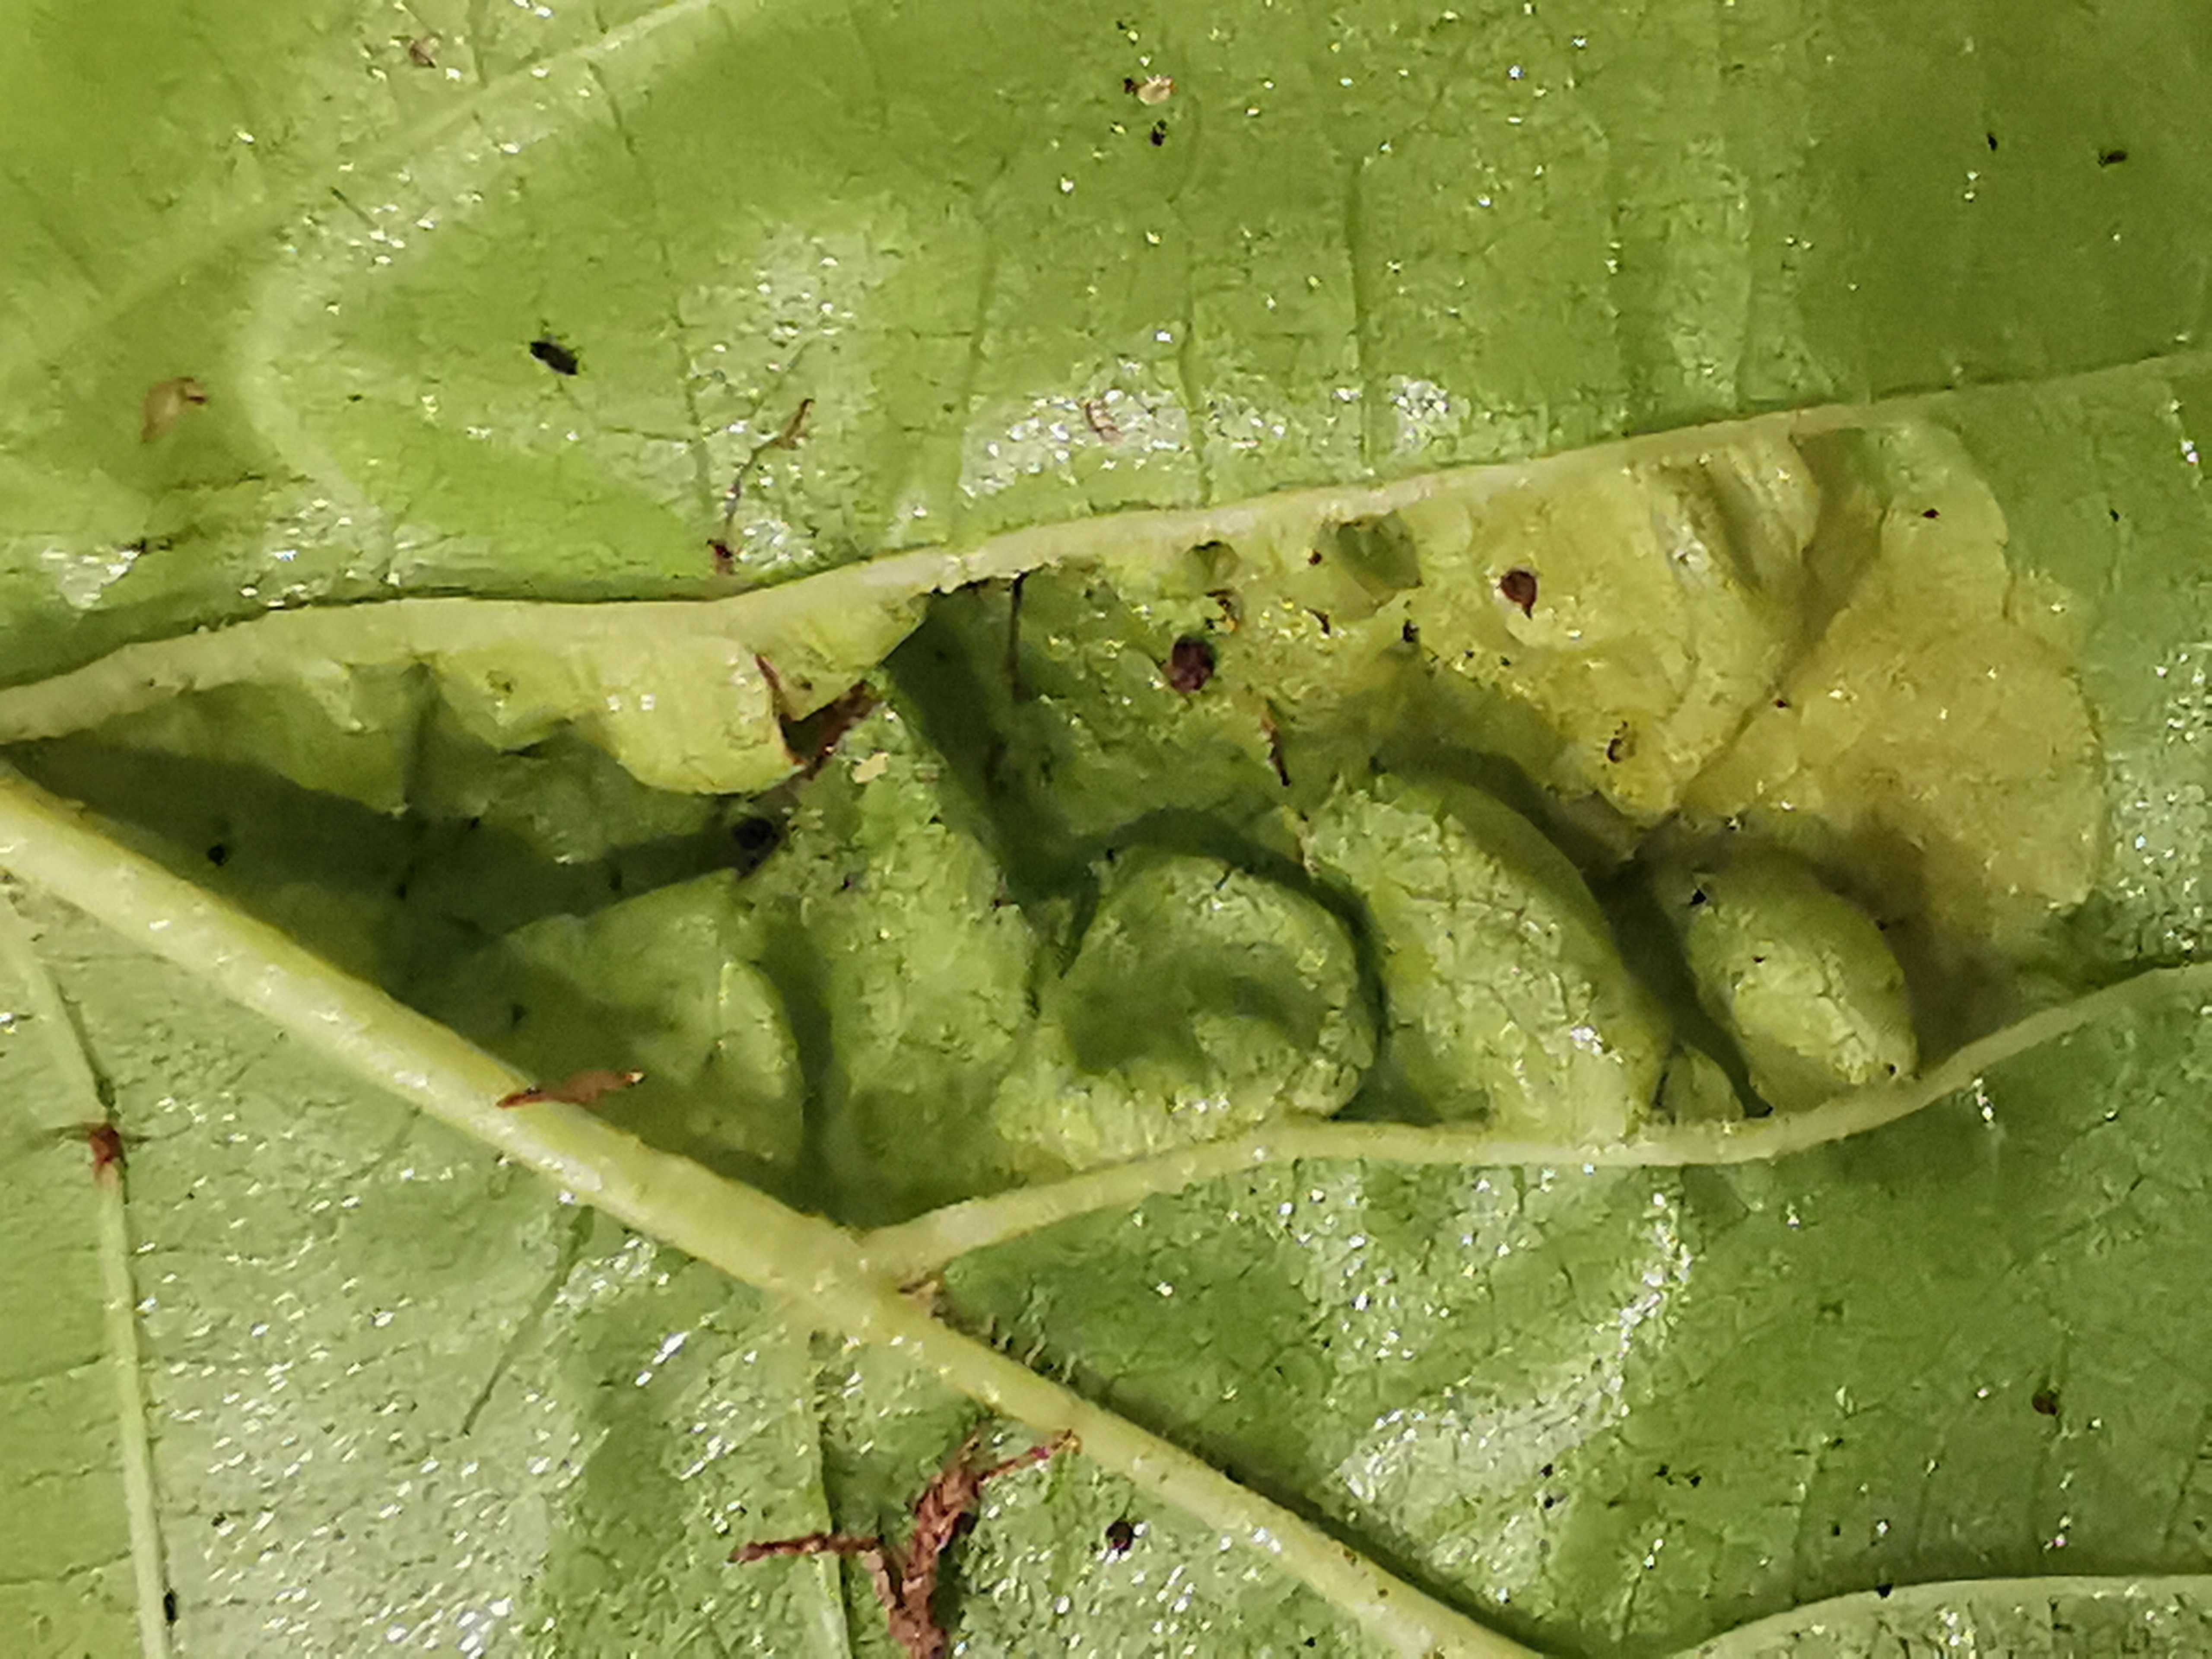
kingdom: Fungi
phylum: Ascomycota
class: Taphrinomycetes
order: Taphrinales
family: Taphrinaceae
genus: Taphrina
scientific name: Taphrina tosquinetii
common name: Alder wrinkle
